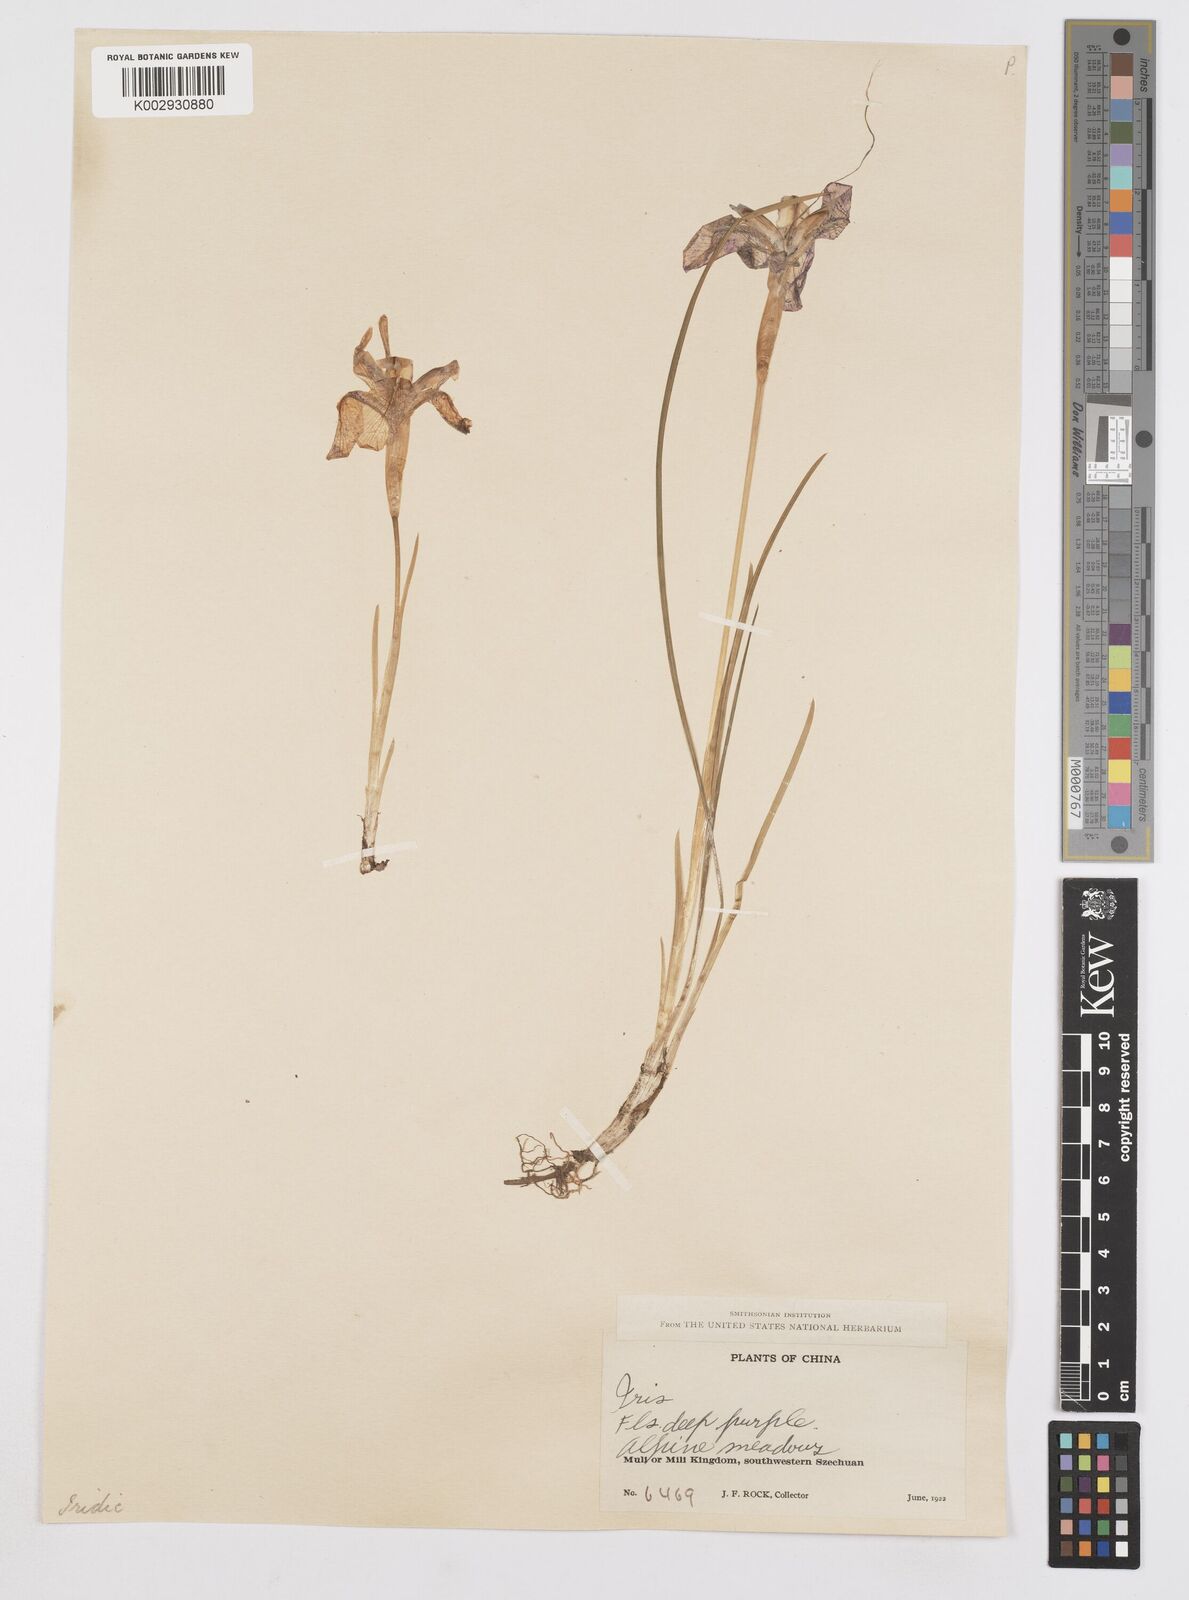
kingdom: Plantae
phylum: Tracheophyta
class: Liliopsida
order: Asparagales
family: Iridaceae
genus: Iris
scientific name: Iris goniocarpa
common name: Angular-fruit iris
